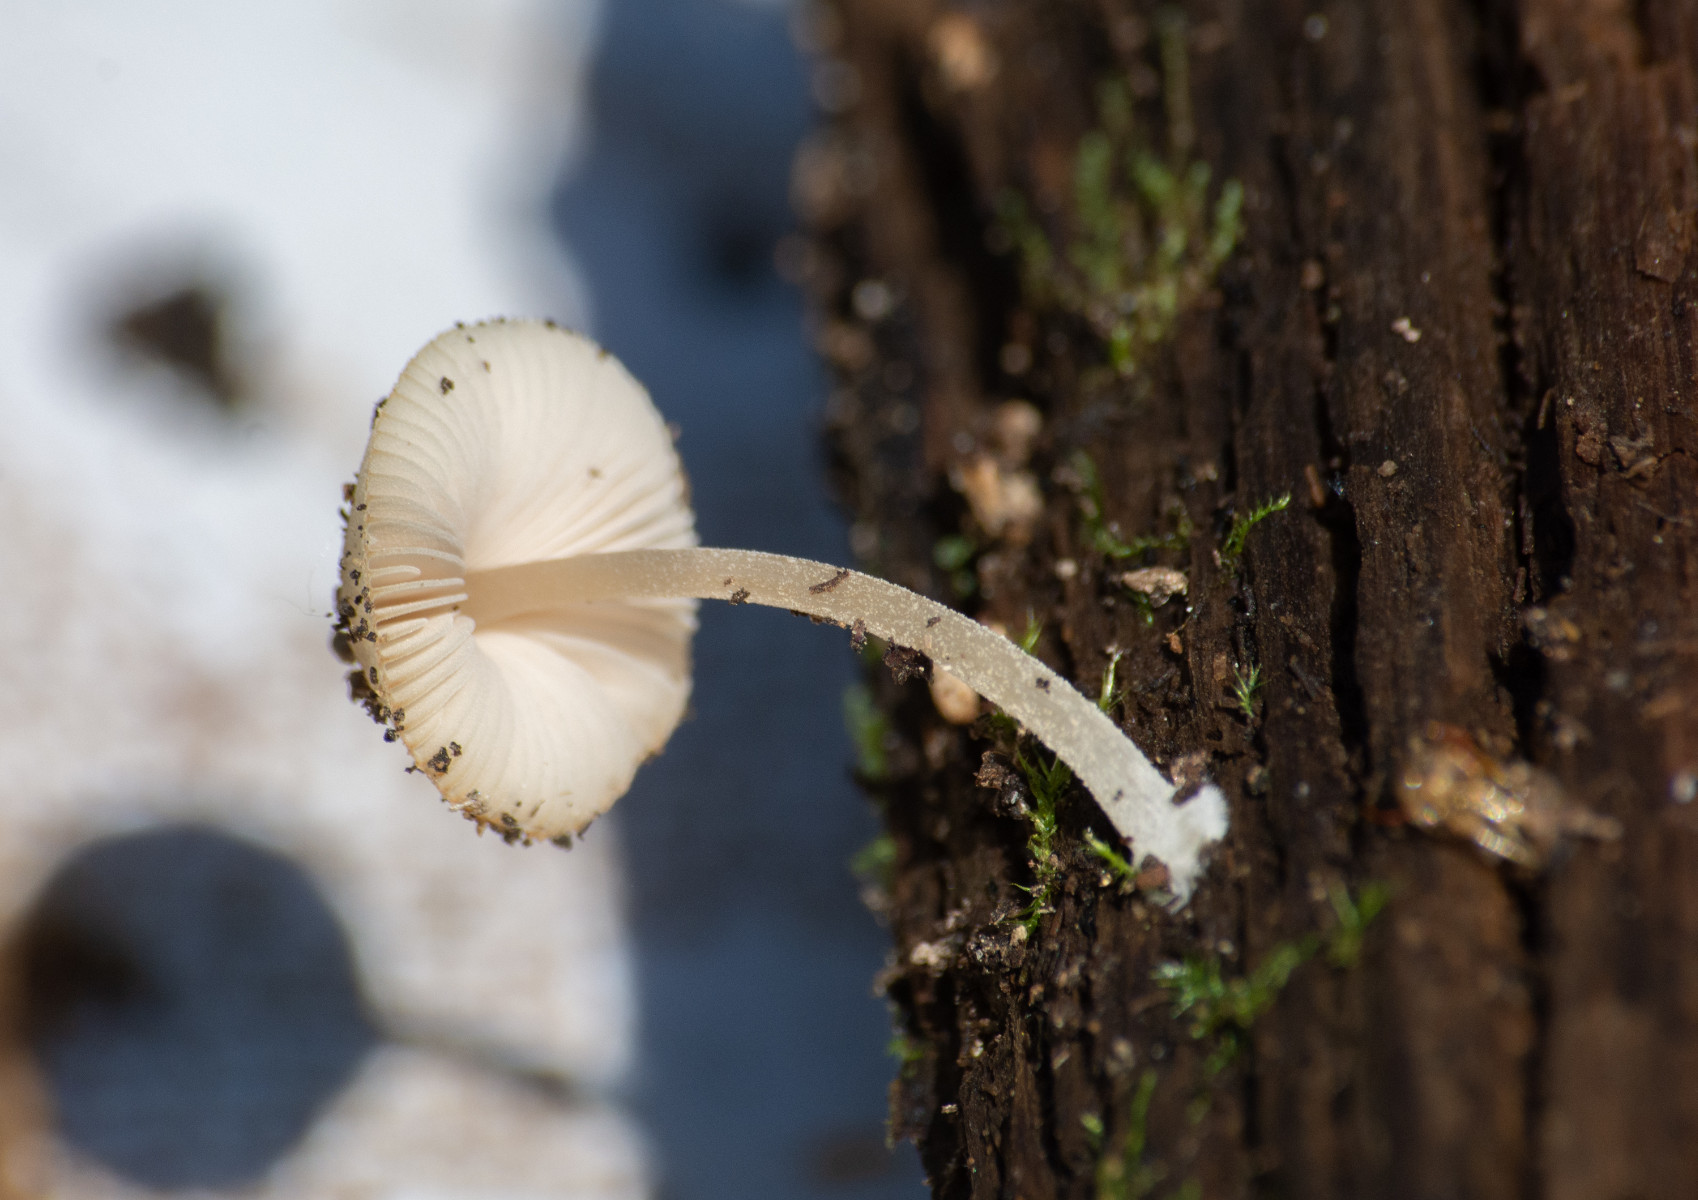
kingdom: Fungi
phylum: Basidiomycota
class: Agaricomycetes
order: Agaricales
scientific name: Agaricales
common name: champignonordenen
